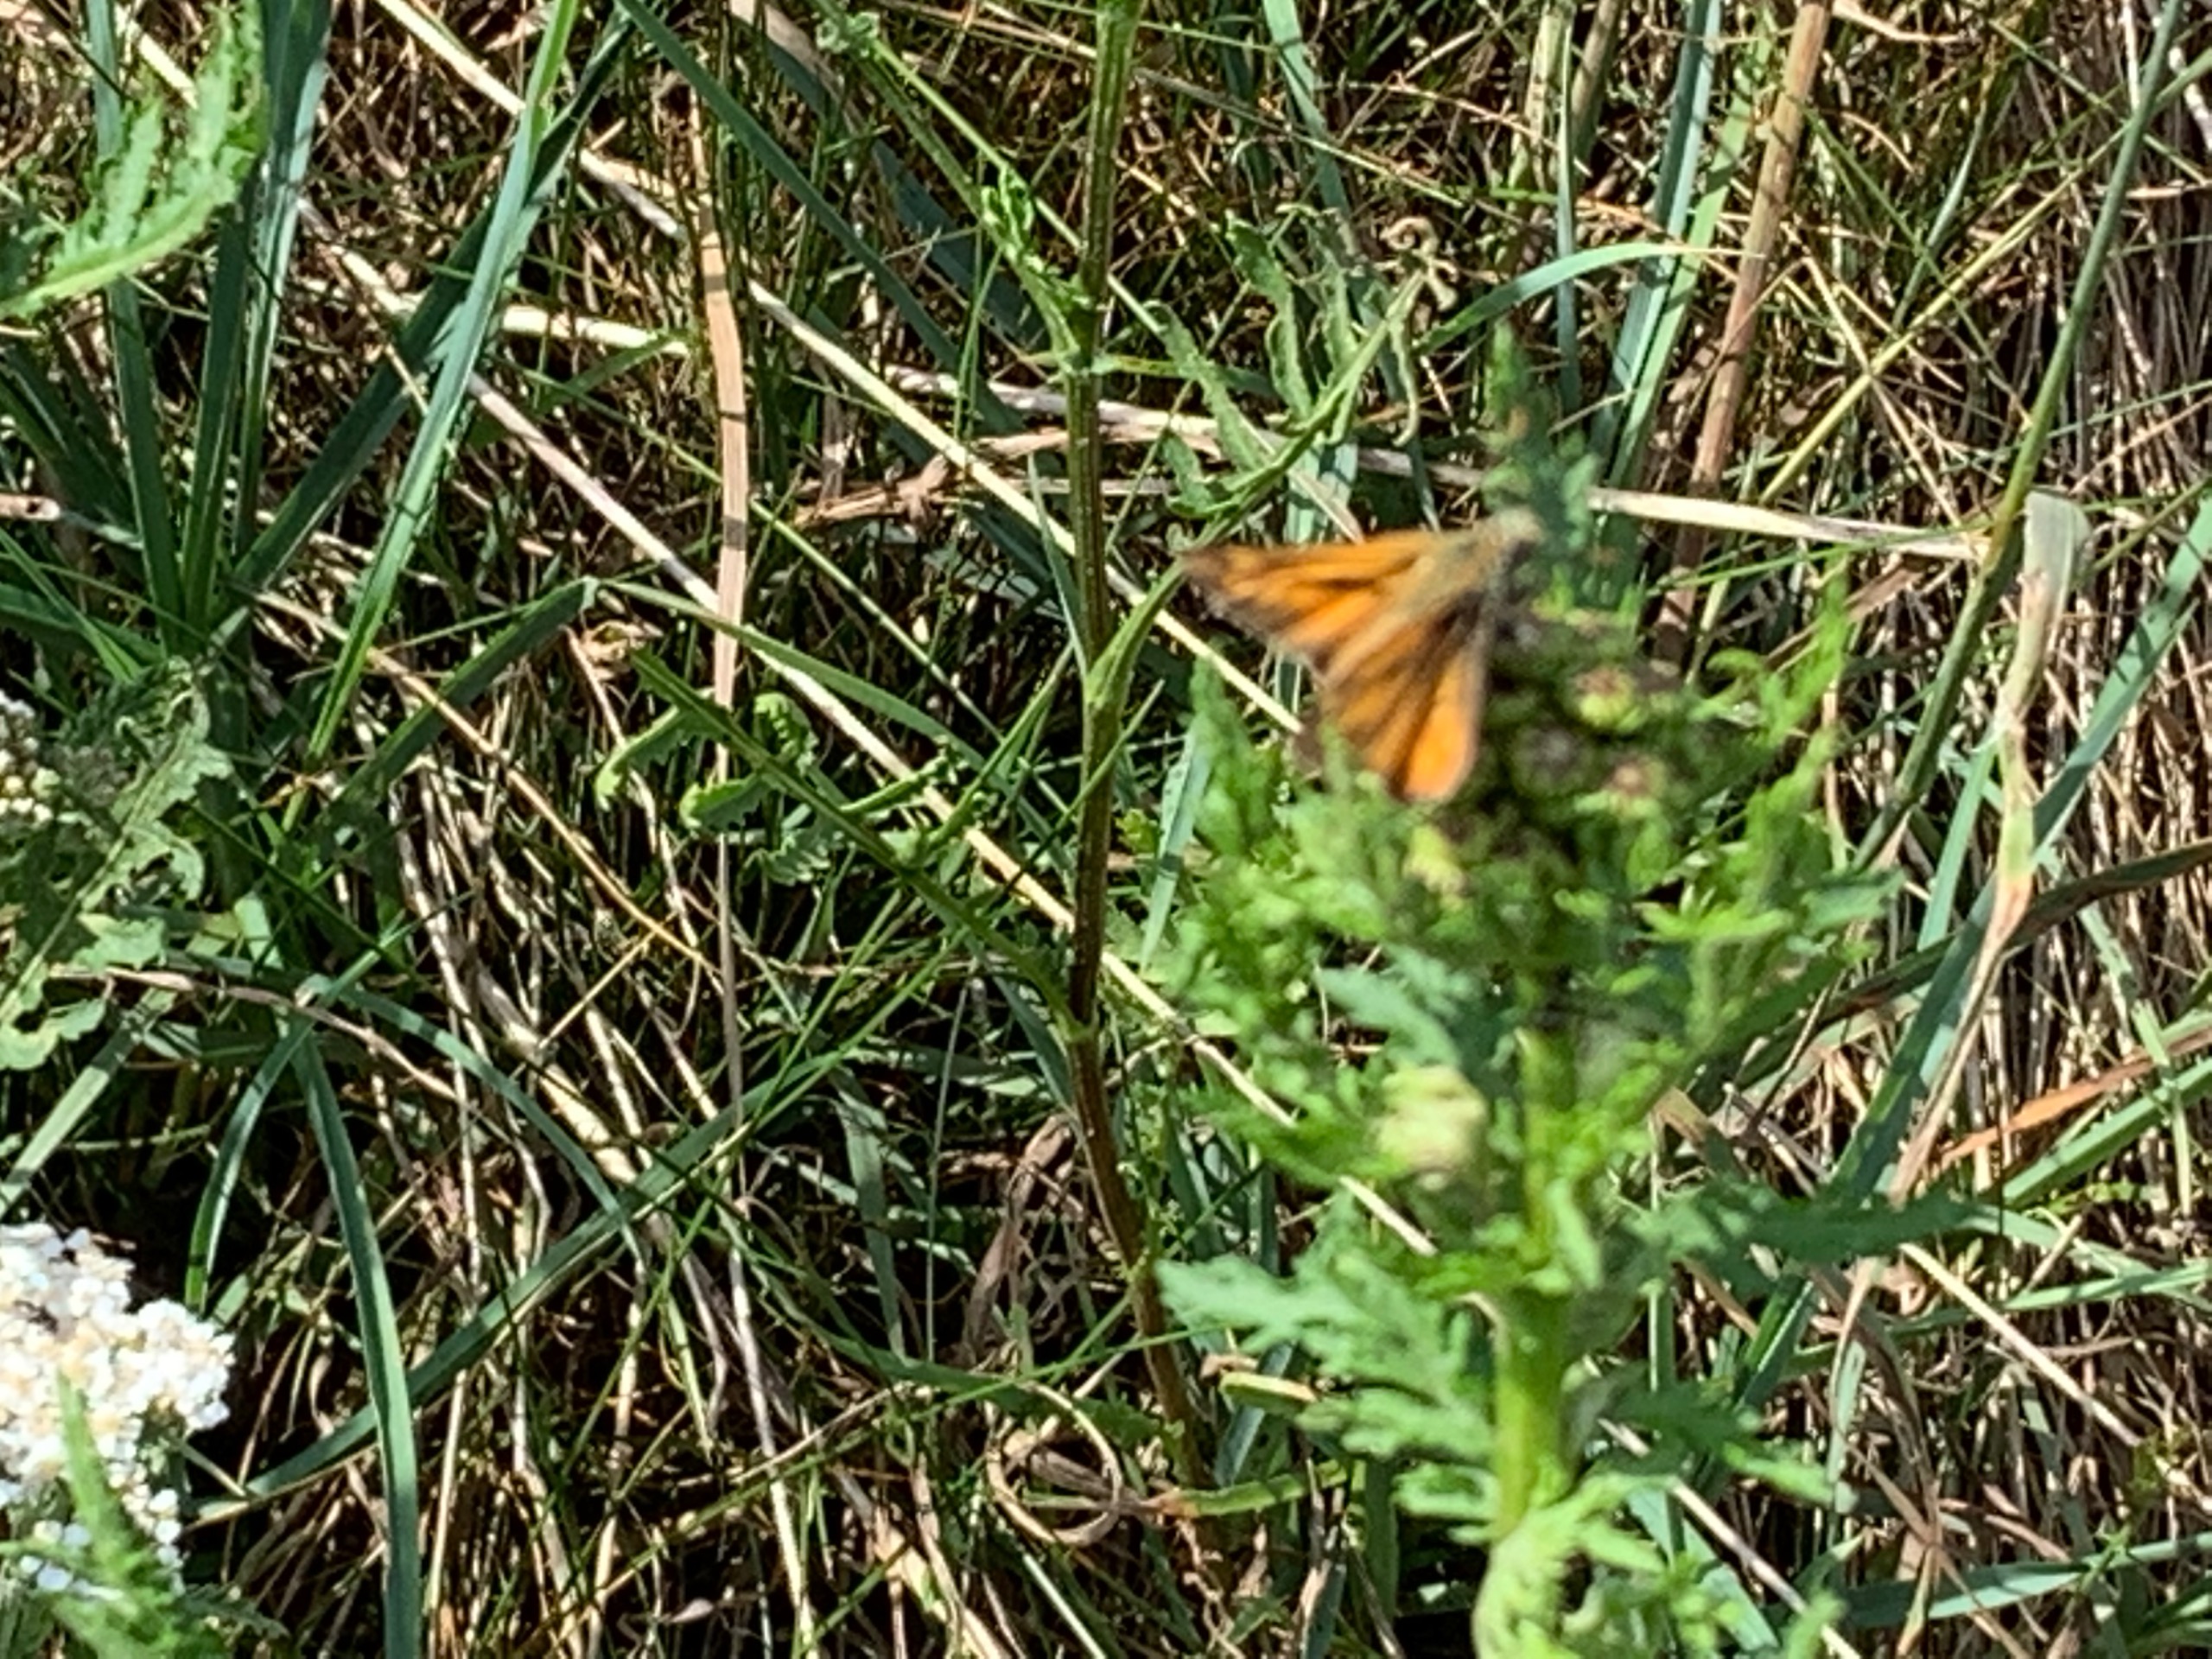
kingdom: Animalia
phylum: Arthropoda
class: Insecta
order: Lepidoptera
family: Hesperiidae
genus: Ochlodes
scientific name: Ochlodes venata
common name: Stor bredpande
